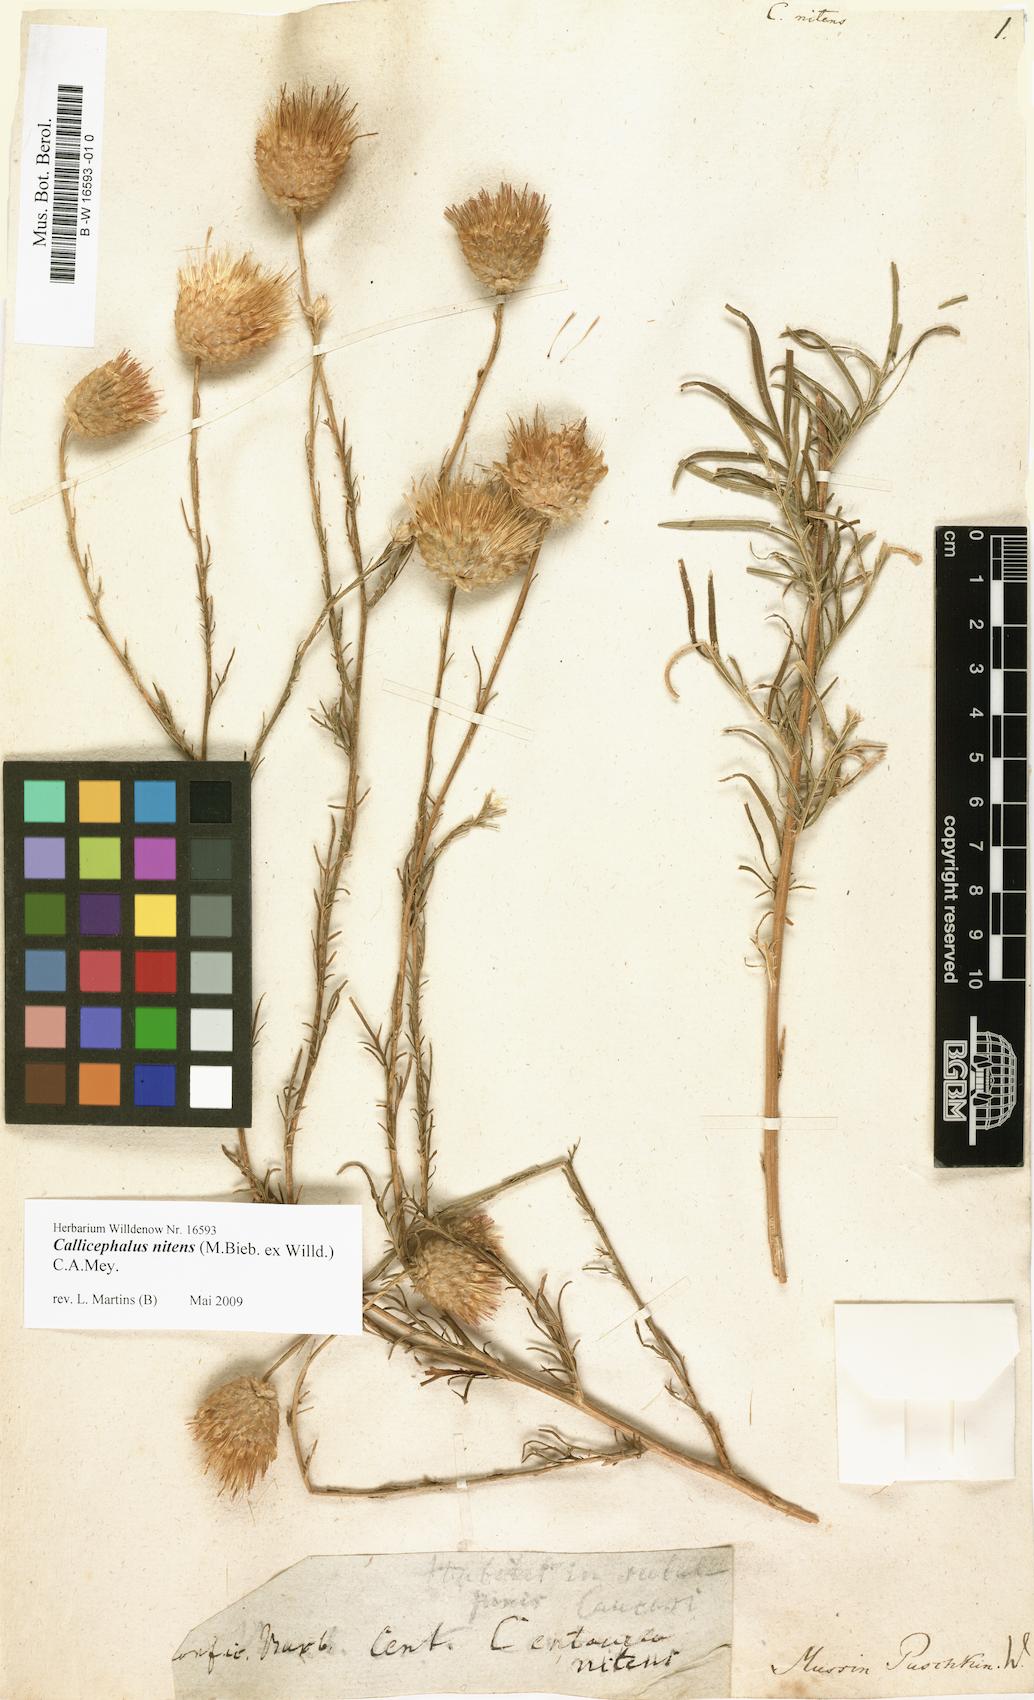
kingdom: Plantae
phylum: Tracheophyta
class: Magnoliopsida
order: Asterales
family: Asteraceae
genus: Callicephalus
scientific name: Callicephalus nitens
